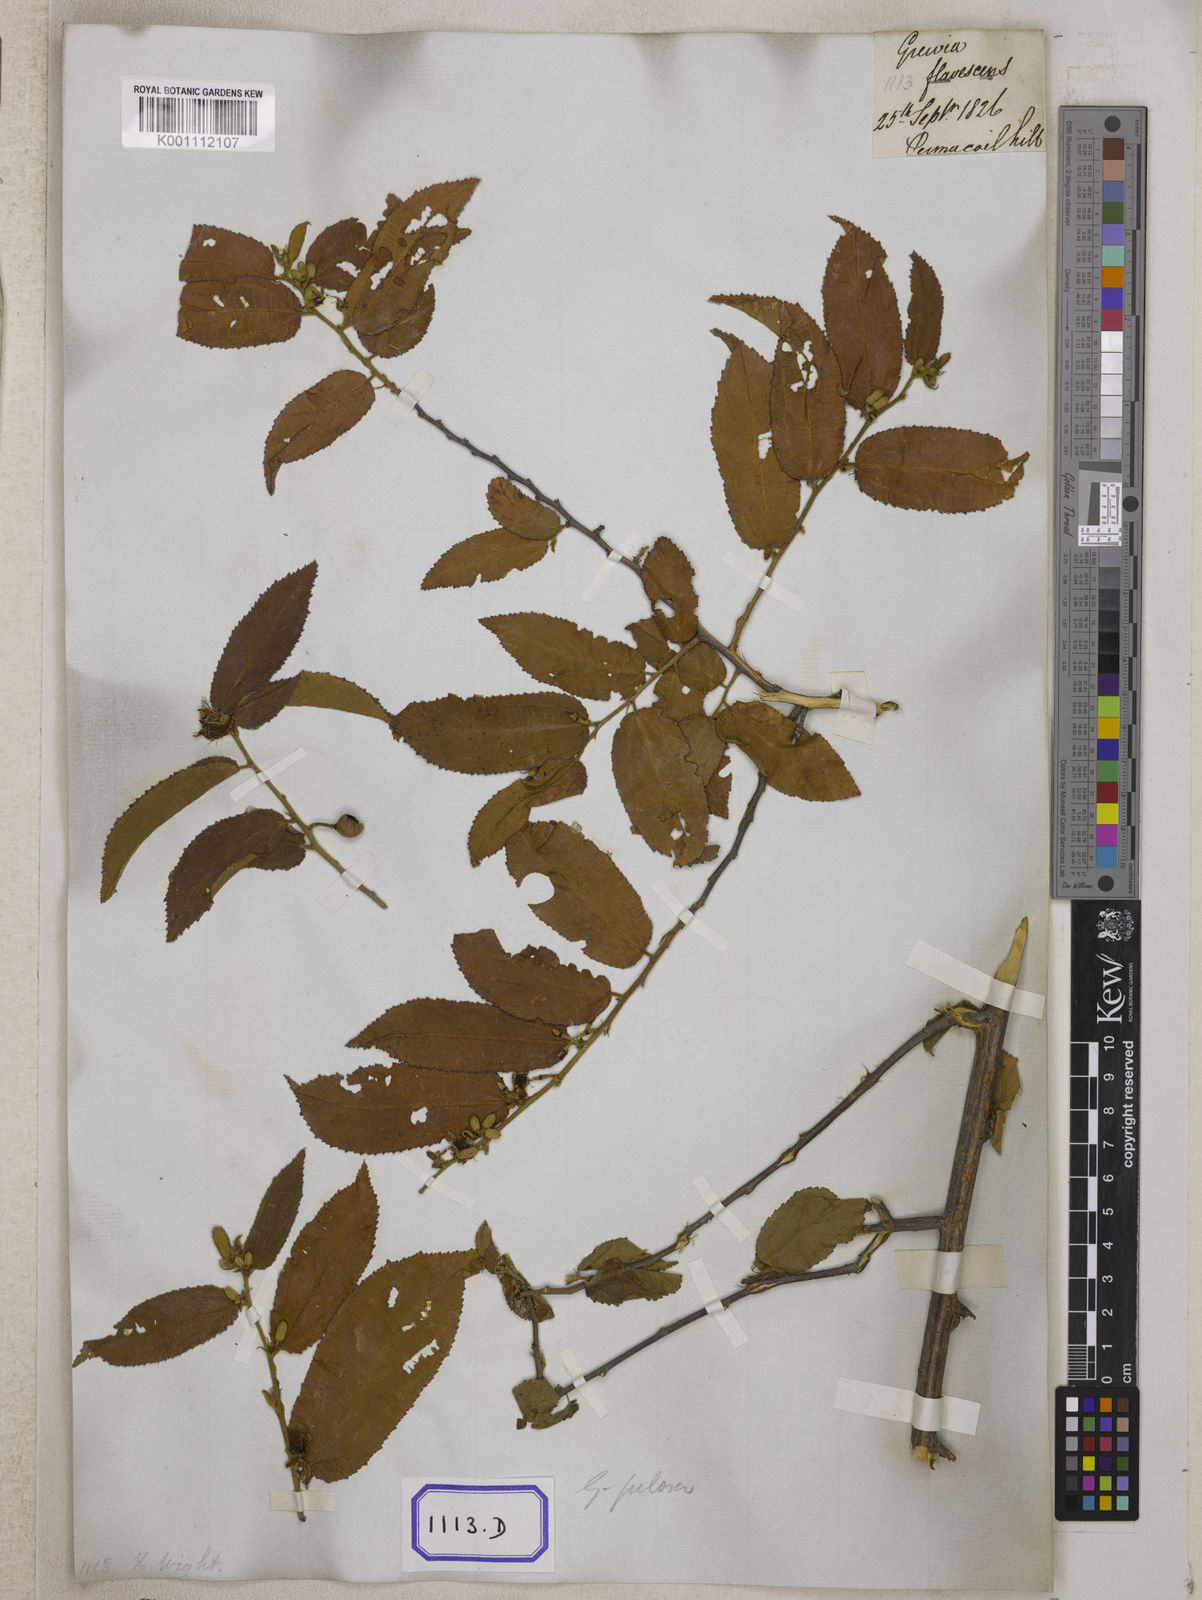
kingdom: Plantae
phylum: Tracheophyta
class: Magnoliopsida
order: Malvales
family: Malvaceae
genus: Grewia
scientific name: Grewia
